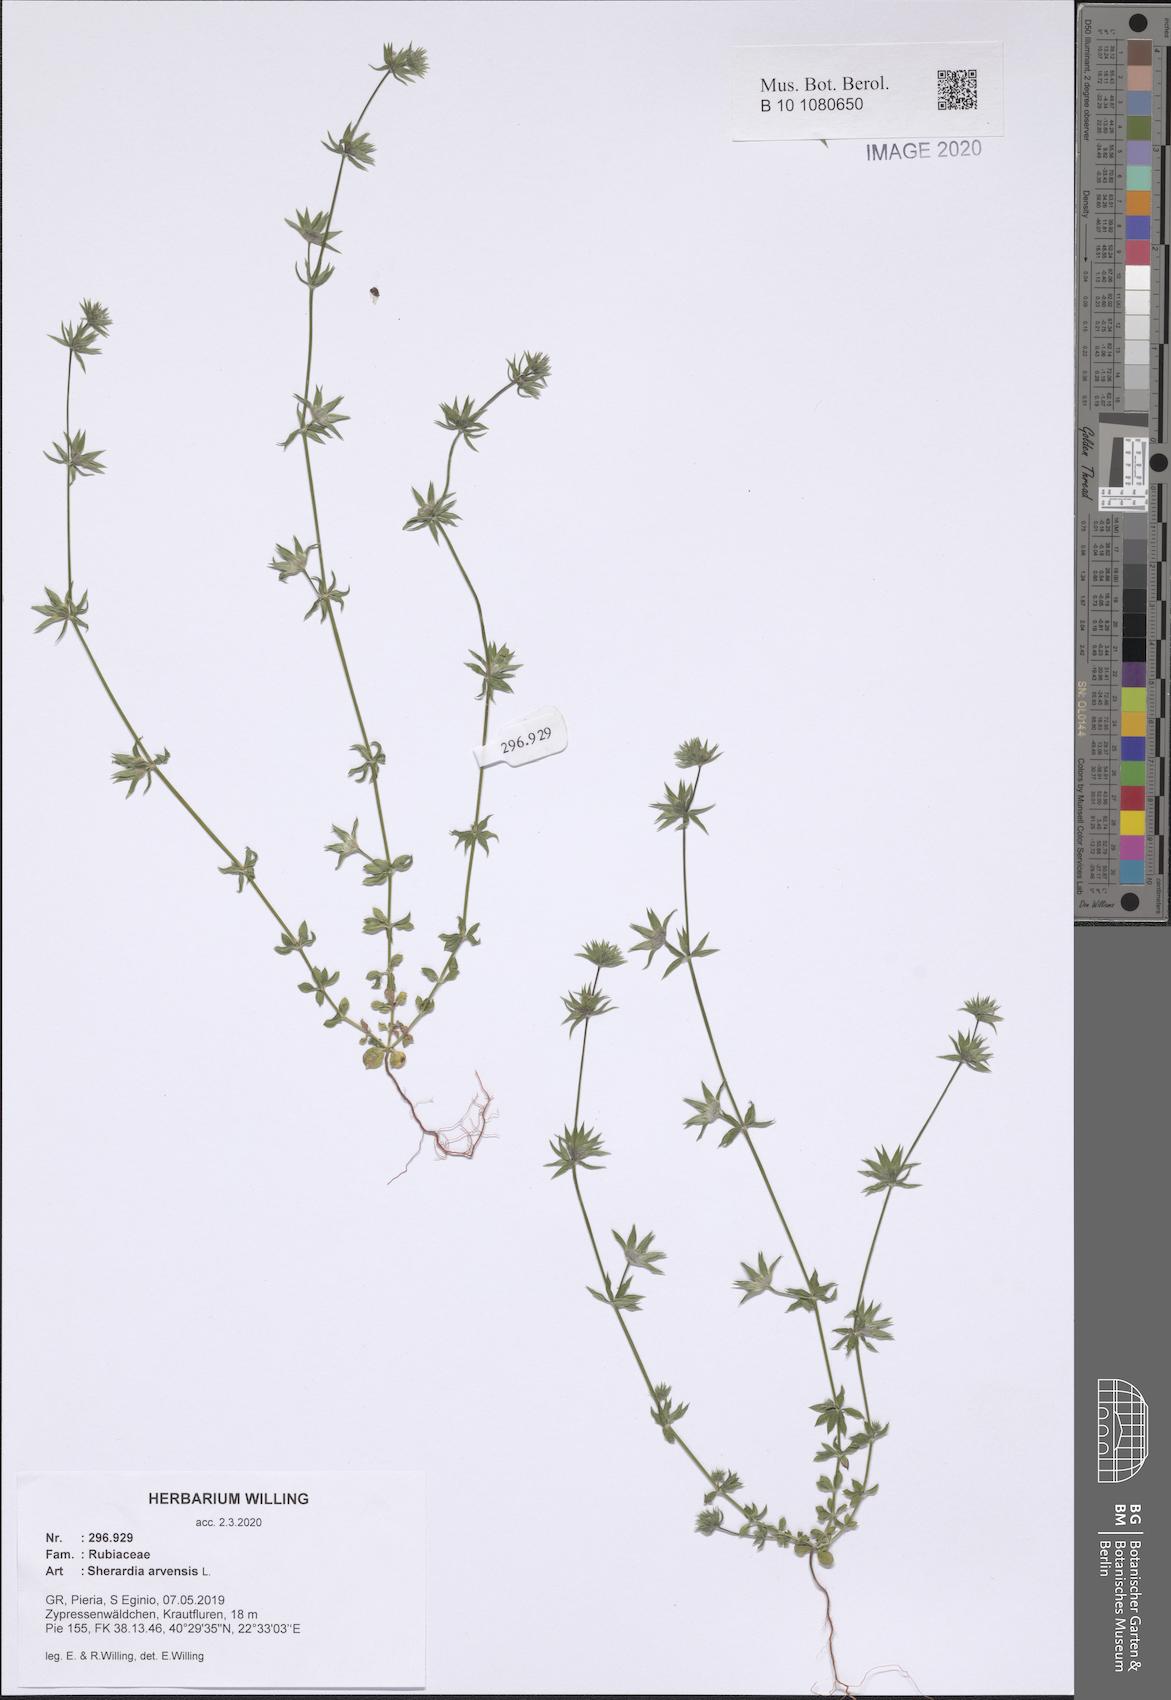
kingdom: Plantae
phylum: Tracheophyta
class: Magnoliopsida
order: Gentianales
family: Rubiaceae
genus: Sherardia
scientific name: Sherardia arvensis
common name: Field madder
